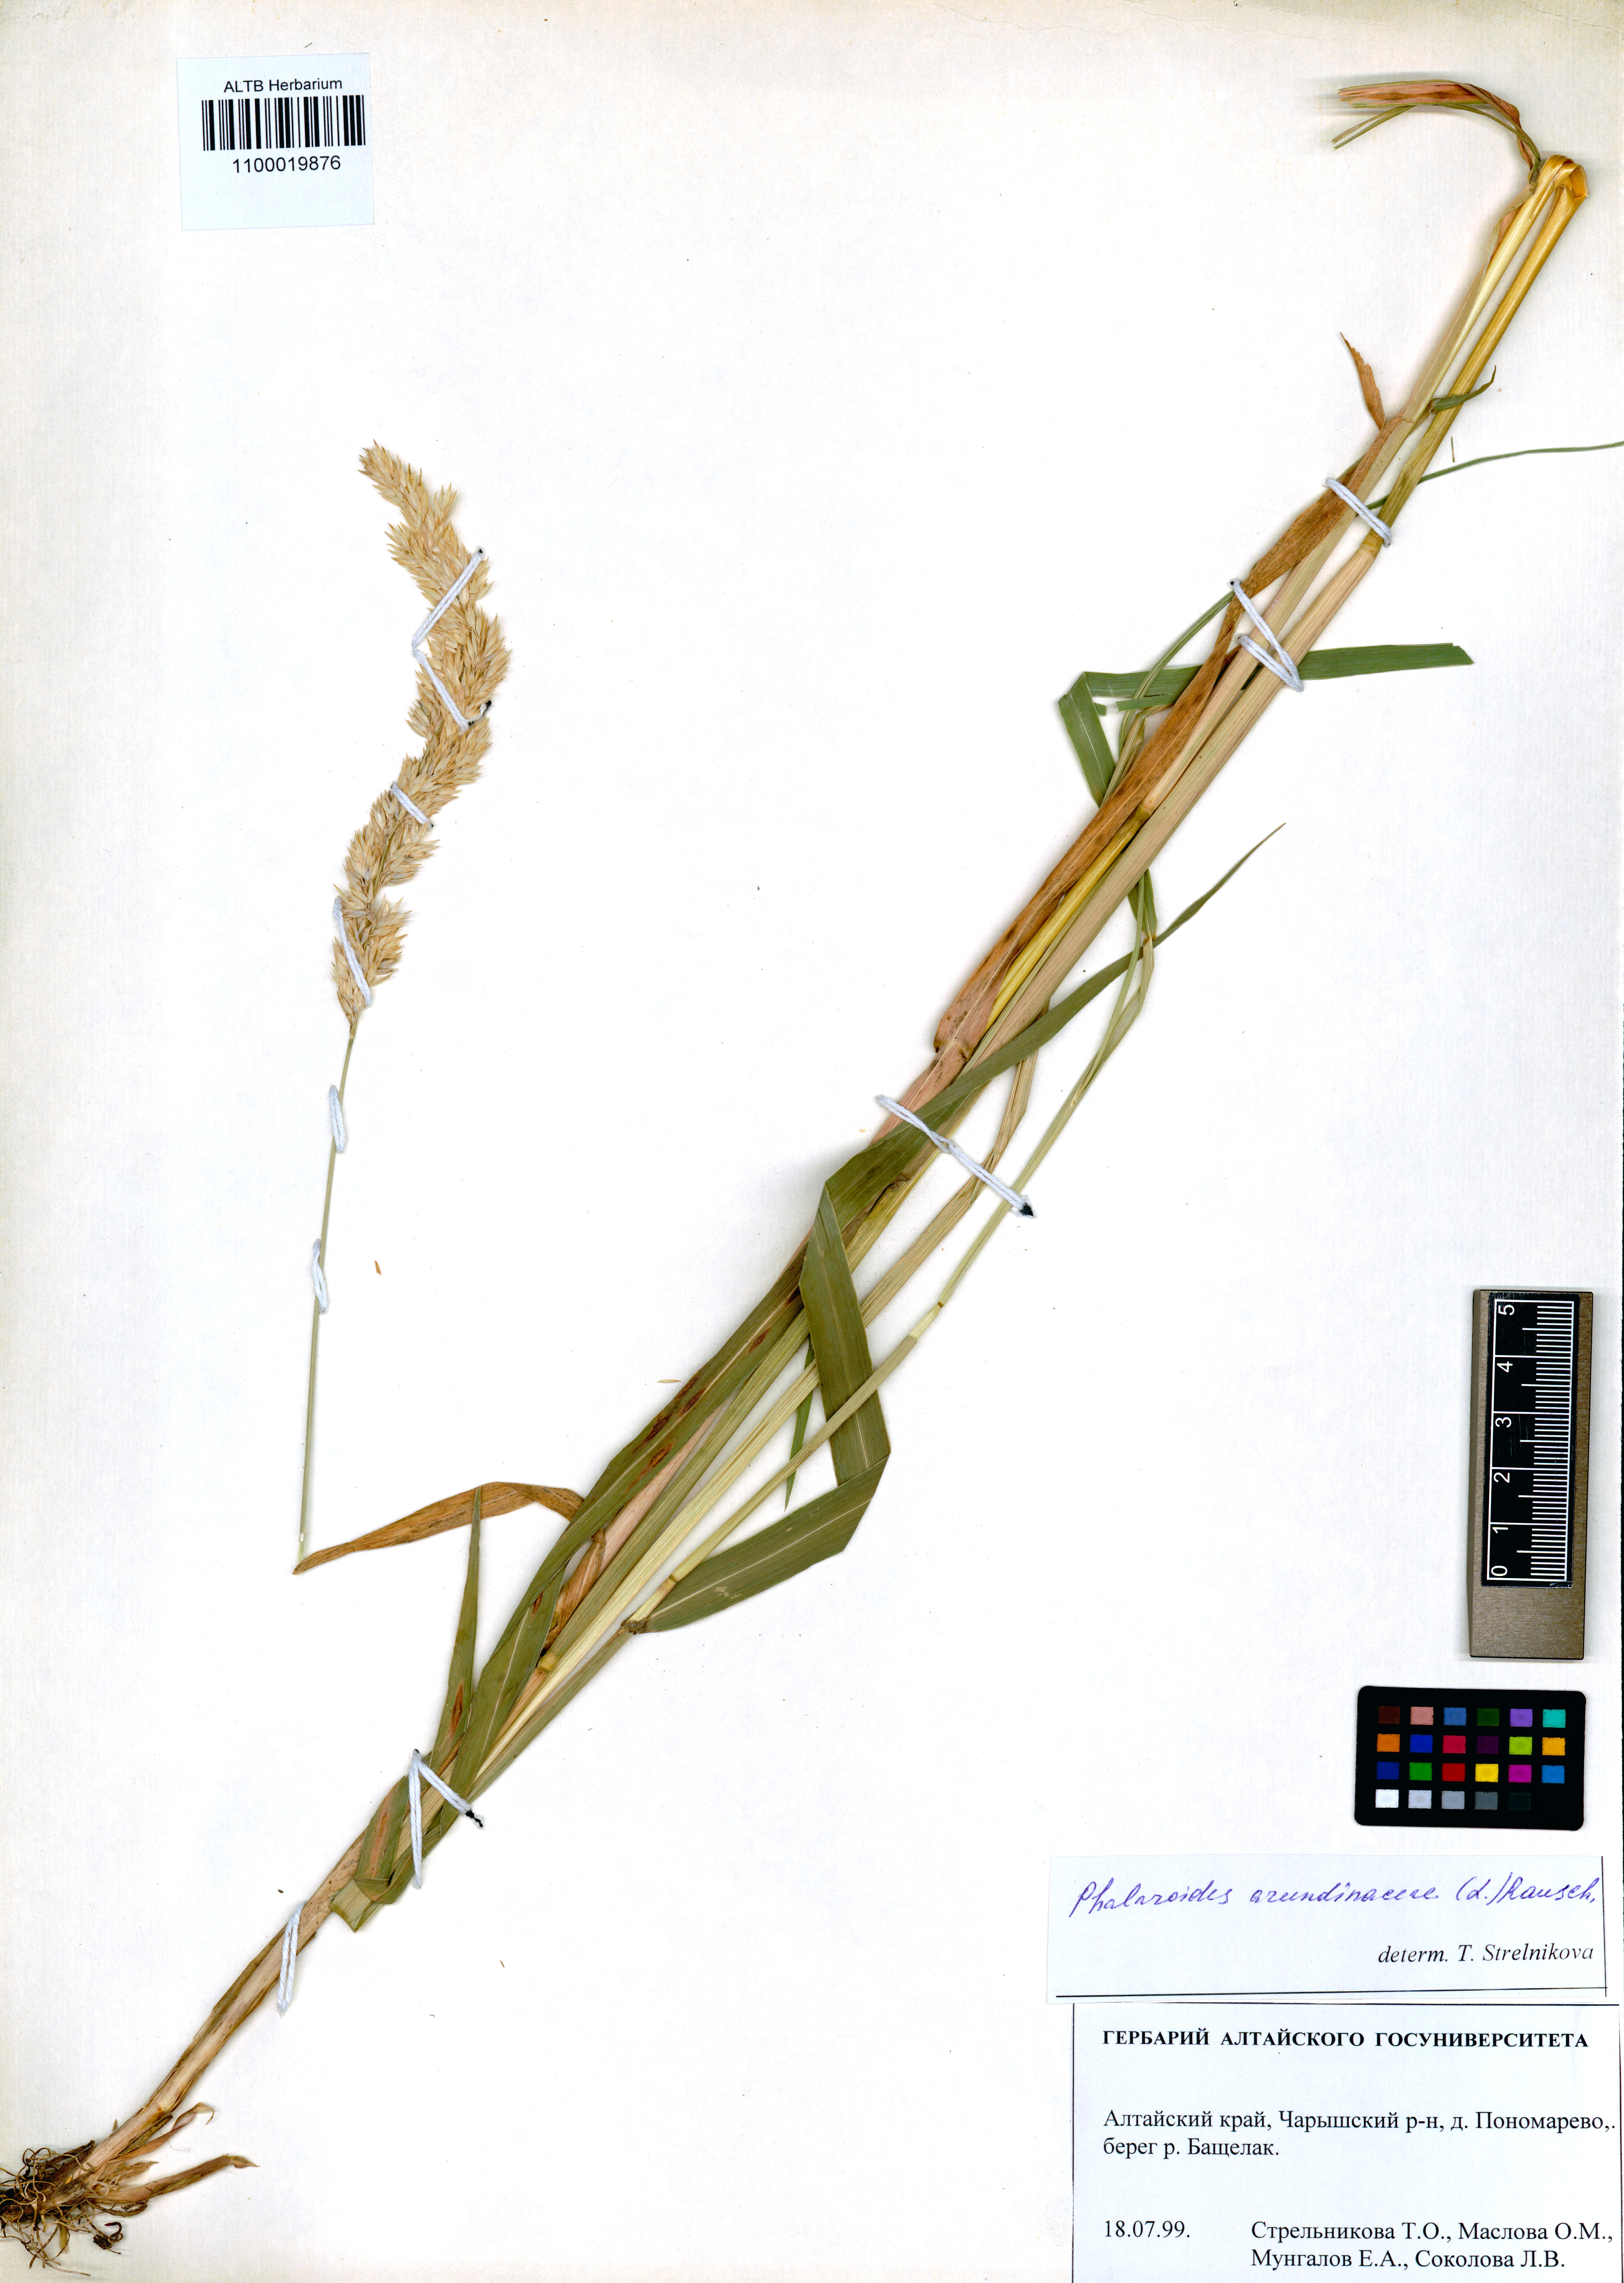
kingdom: Plantae
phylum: Tracheophyta
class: Liliopsida
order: Poales
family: Poaceae
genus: Phalaris
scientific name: Phalaris arundinacea
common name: Reed canary-grass
